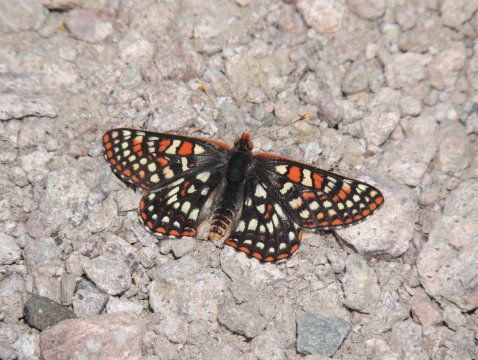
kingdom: Animalia
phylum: Arthropoda
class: Insecta
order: Lepidoptera
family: Nymphalidae
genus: Occidryas
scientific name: Occidryas anicia
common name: Anicia Checkerspot
